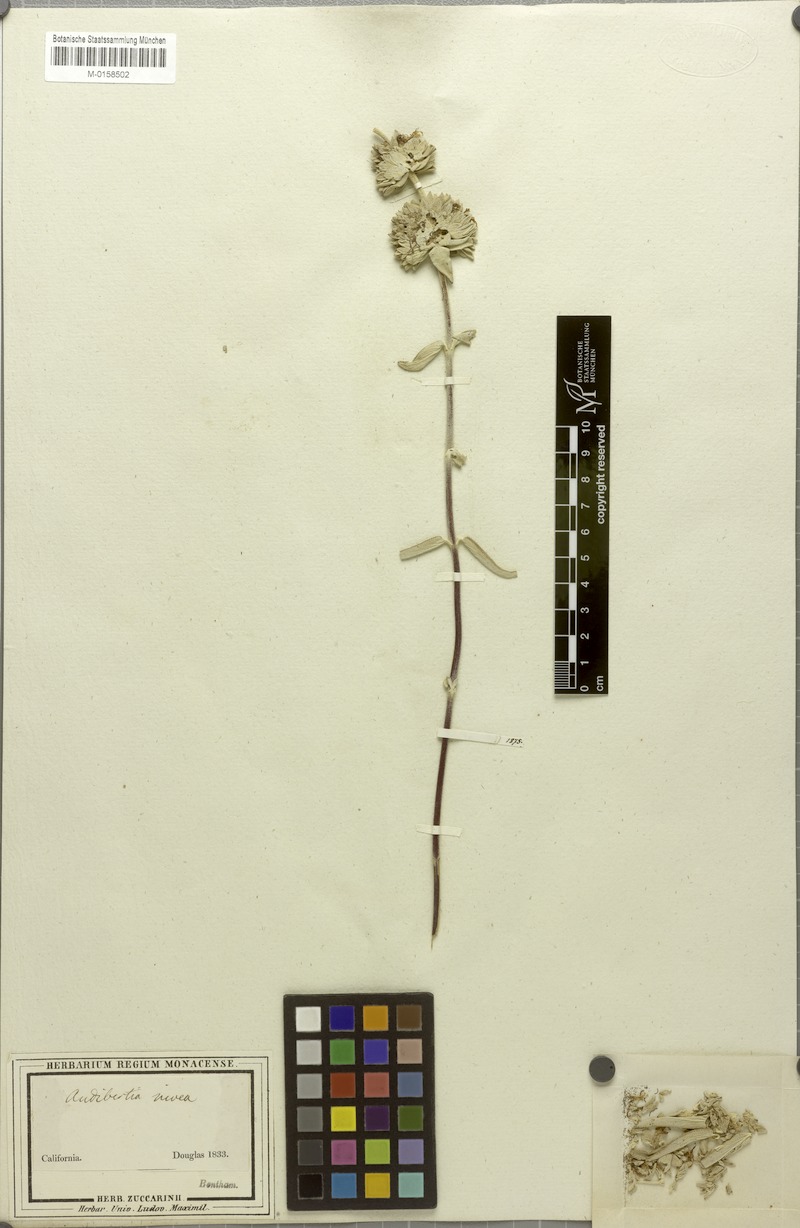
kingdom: Plantae
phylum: Tracheophyta
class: Magnoliopsida
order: Lamiales
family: Lamiaceae
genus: Salvia
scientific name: Salvia leucophylla
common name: Purple sage
